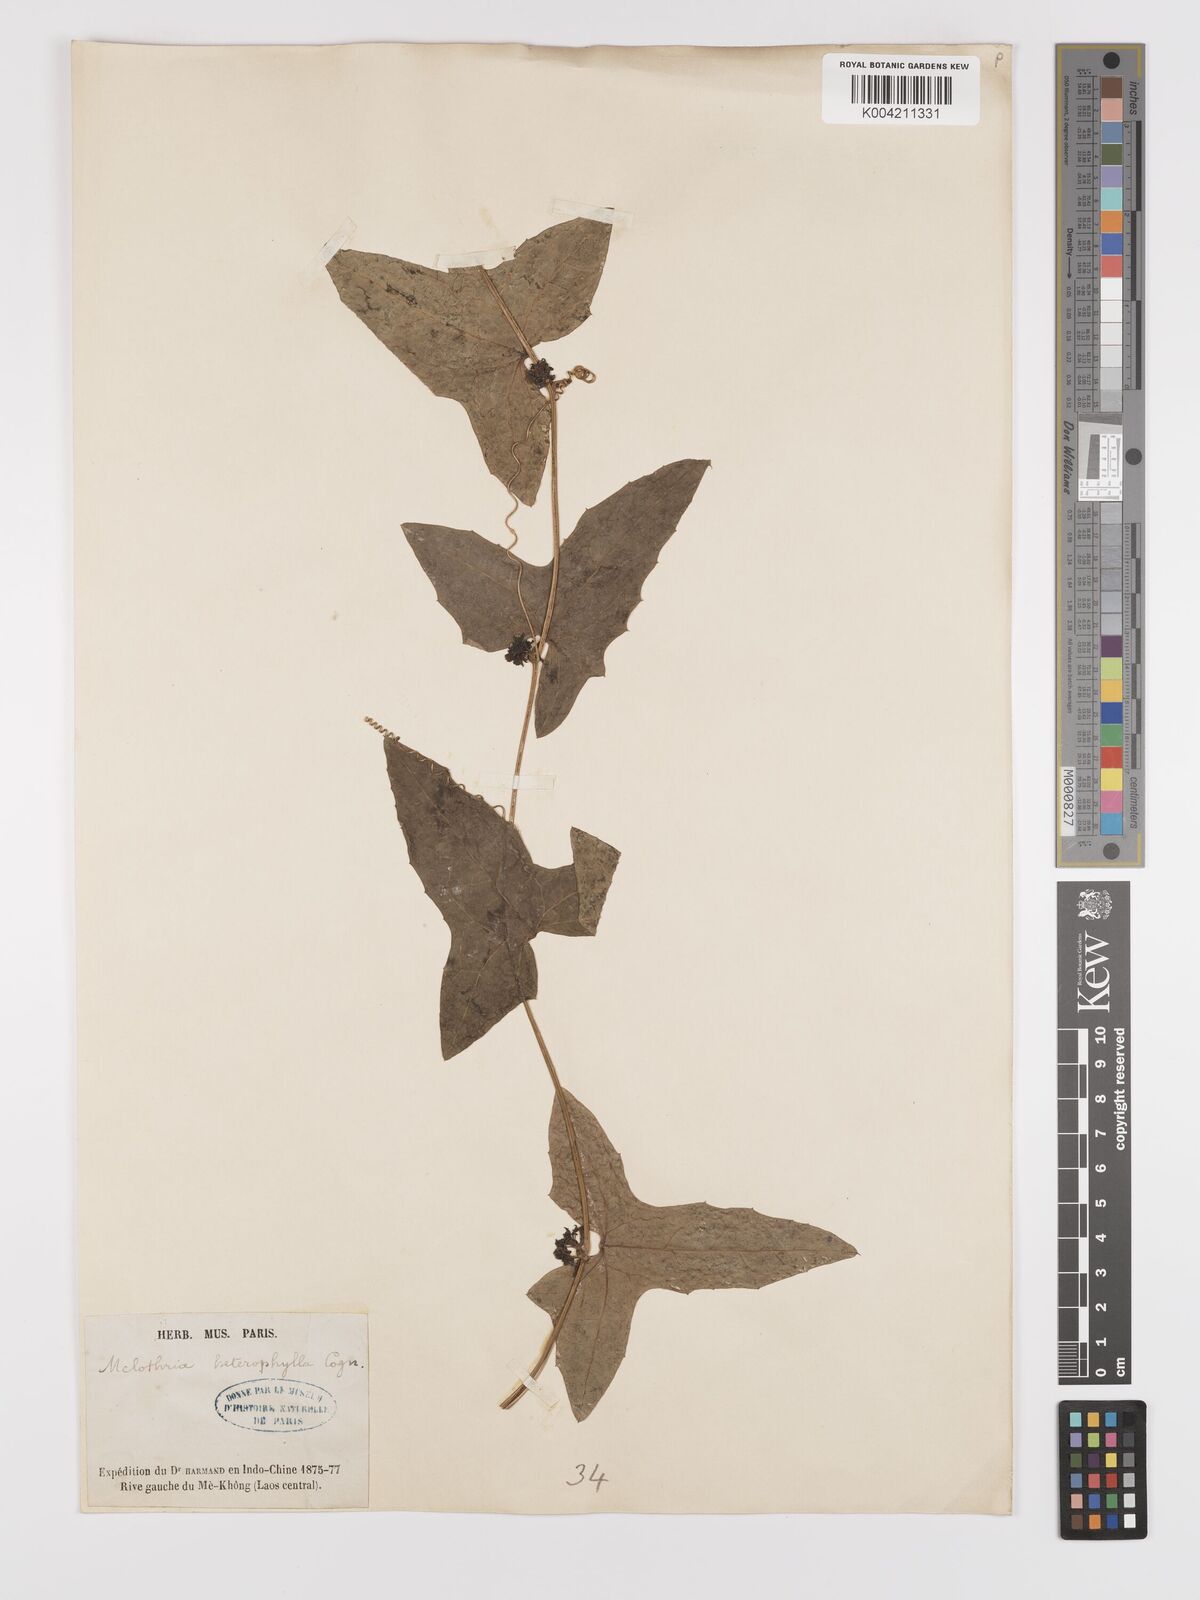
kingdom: Plantae
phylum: Tracheophyta
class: Magnoliopsida
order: Cucurbitales
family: Cucurbitaceae
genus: Solena
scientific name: Solena amplexicaulis
